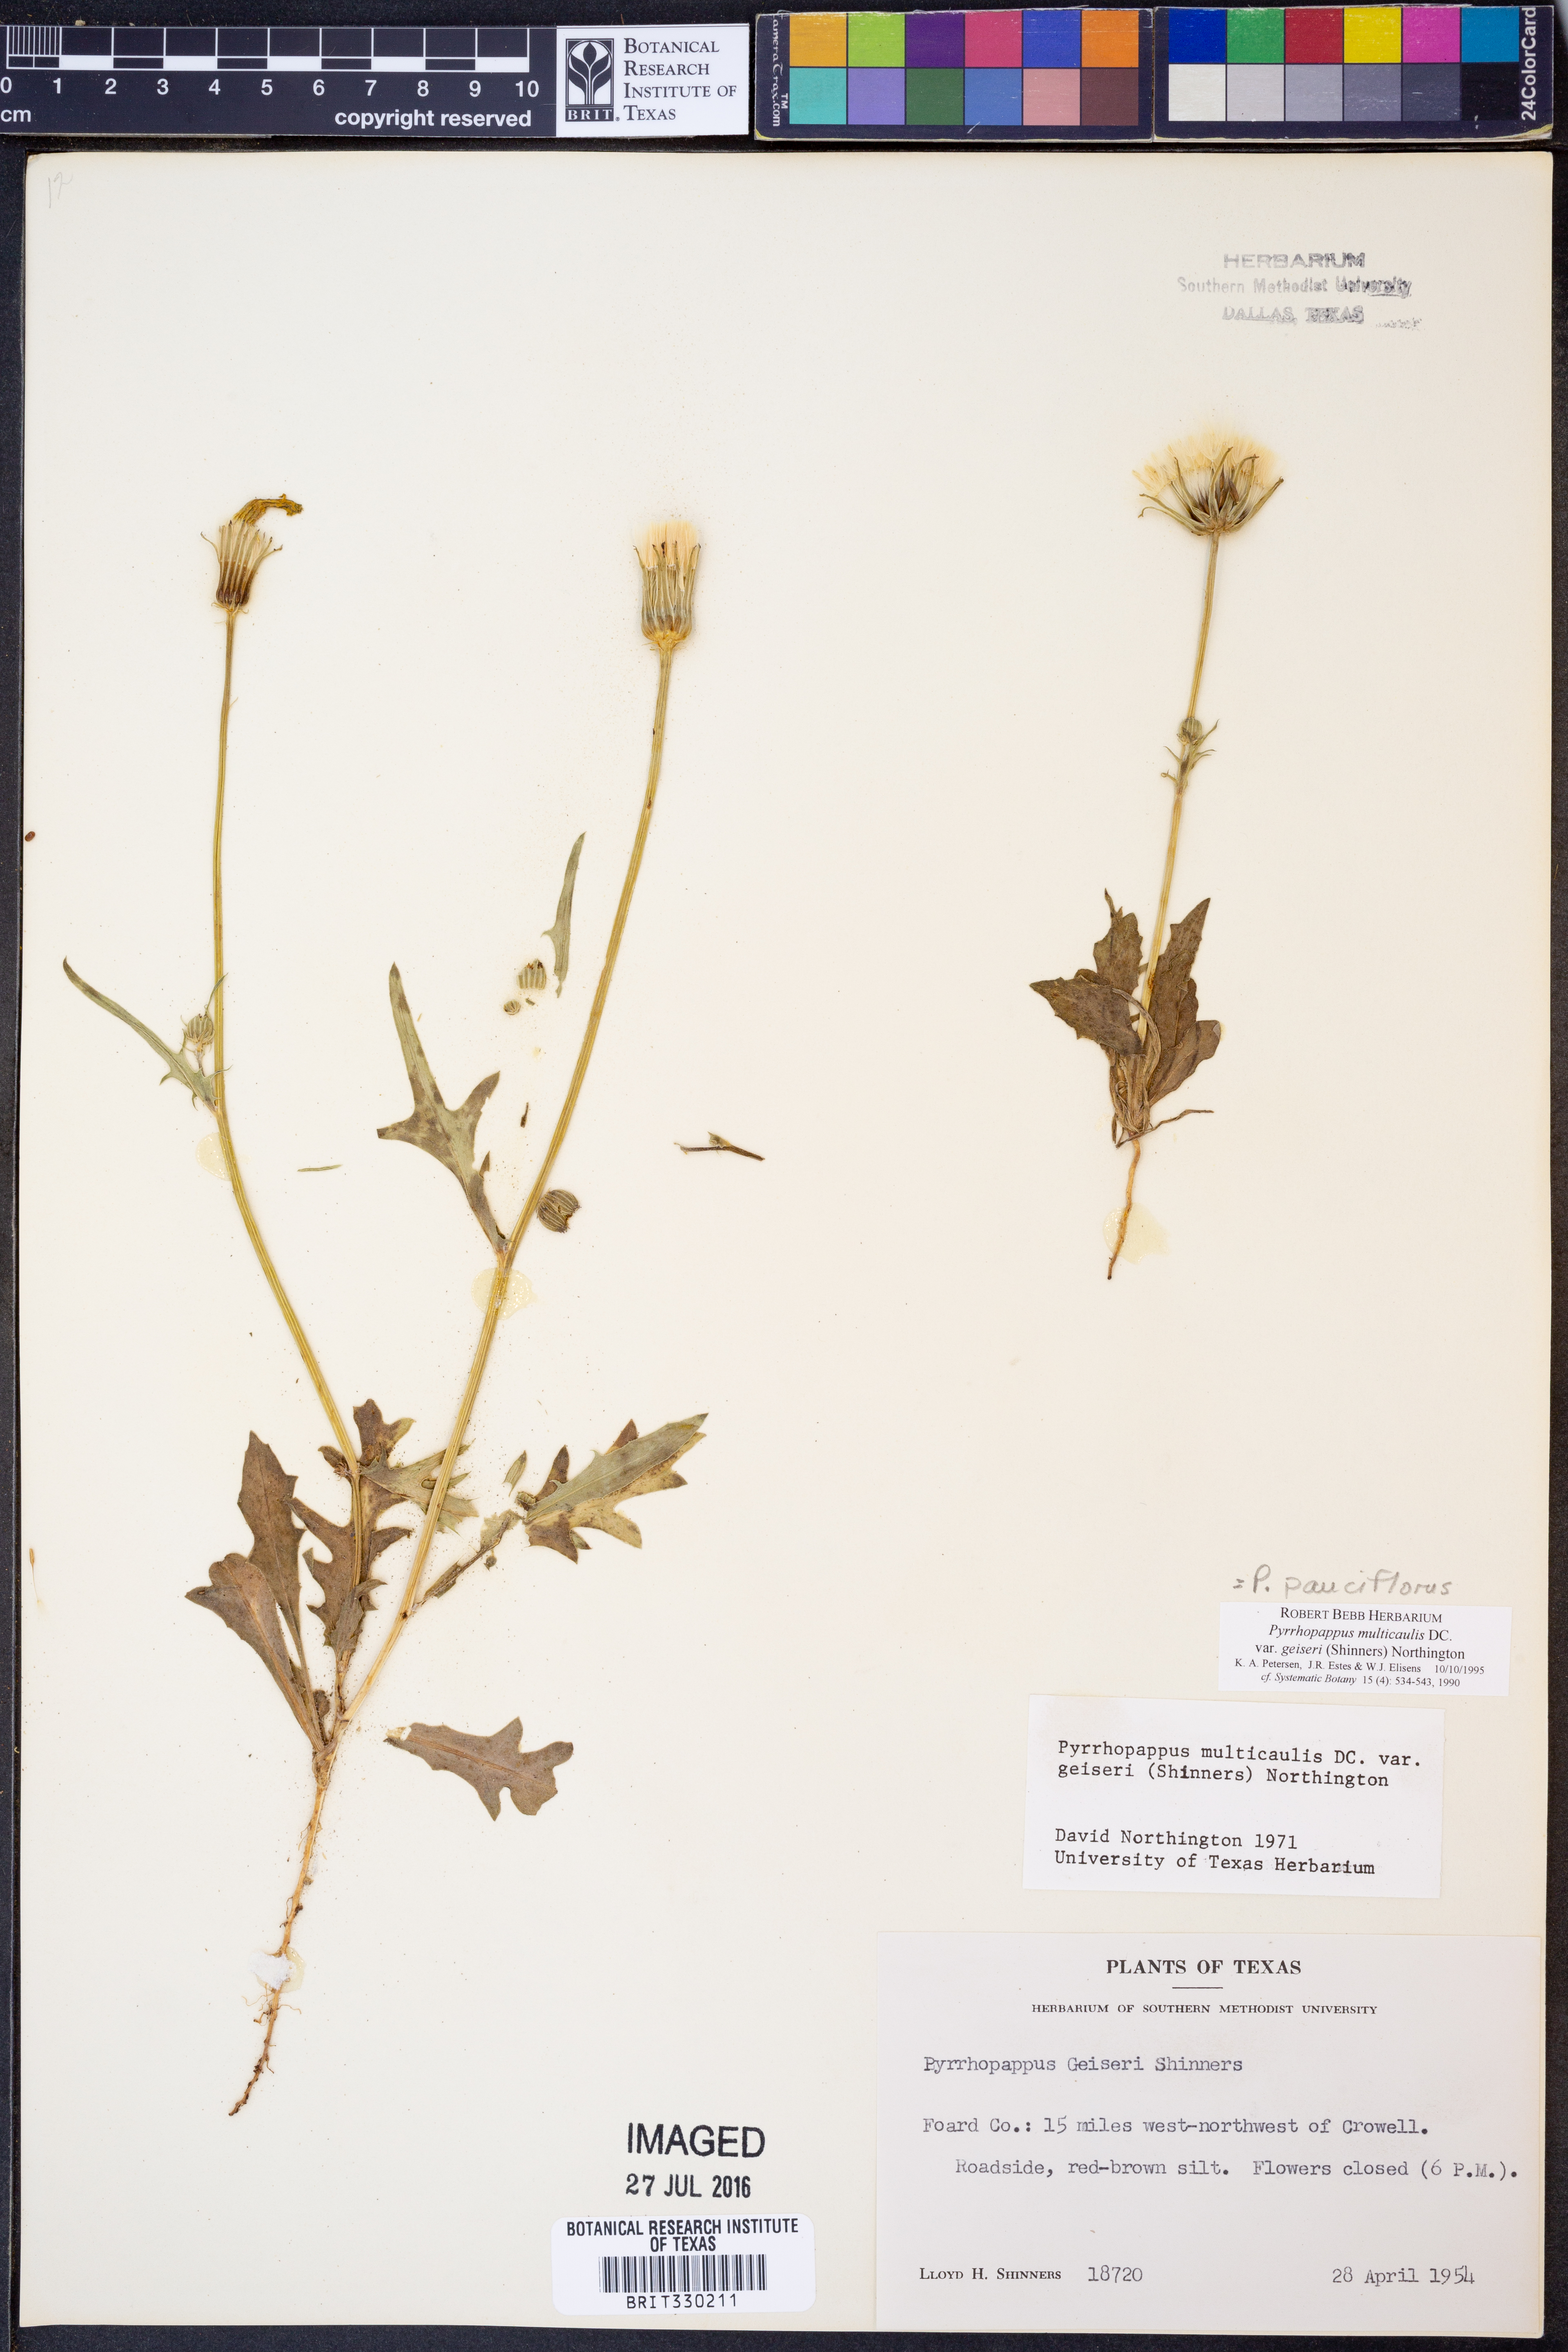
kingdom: Plantae
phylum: Tracheophyta
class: Magnoliopsida
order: Asterales
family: Asteraceae
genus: Pyrrhopappus
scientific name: Pyrrhopappus pauciflorus
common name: Texas false dandelion
